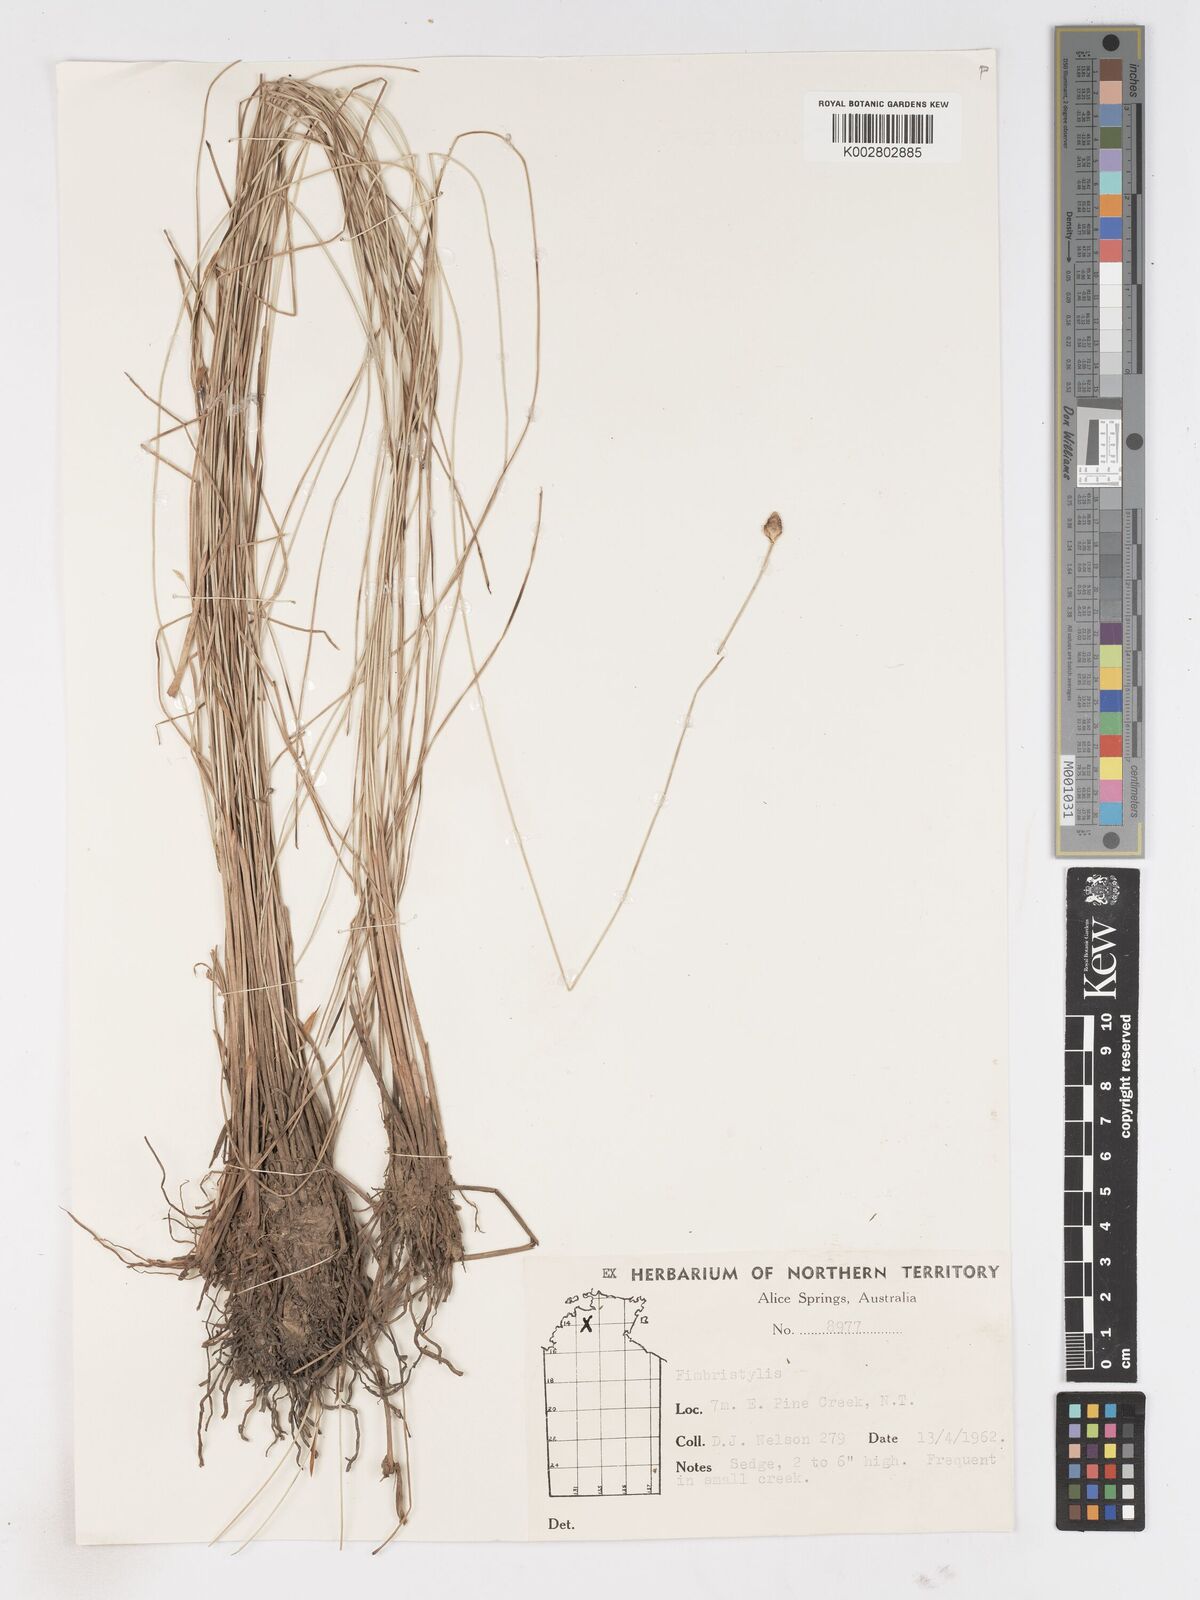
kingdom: Plantae
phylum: Tracheophyta
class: Liliopsida
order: Poales
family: Cyperaceae
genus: Fimbristylis
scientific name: Fimbristylis
